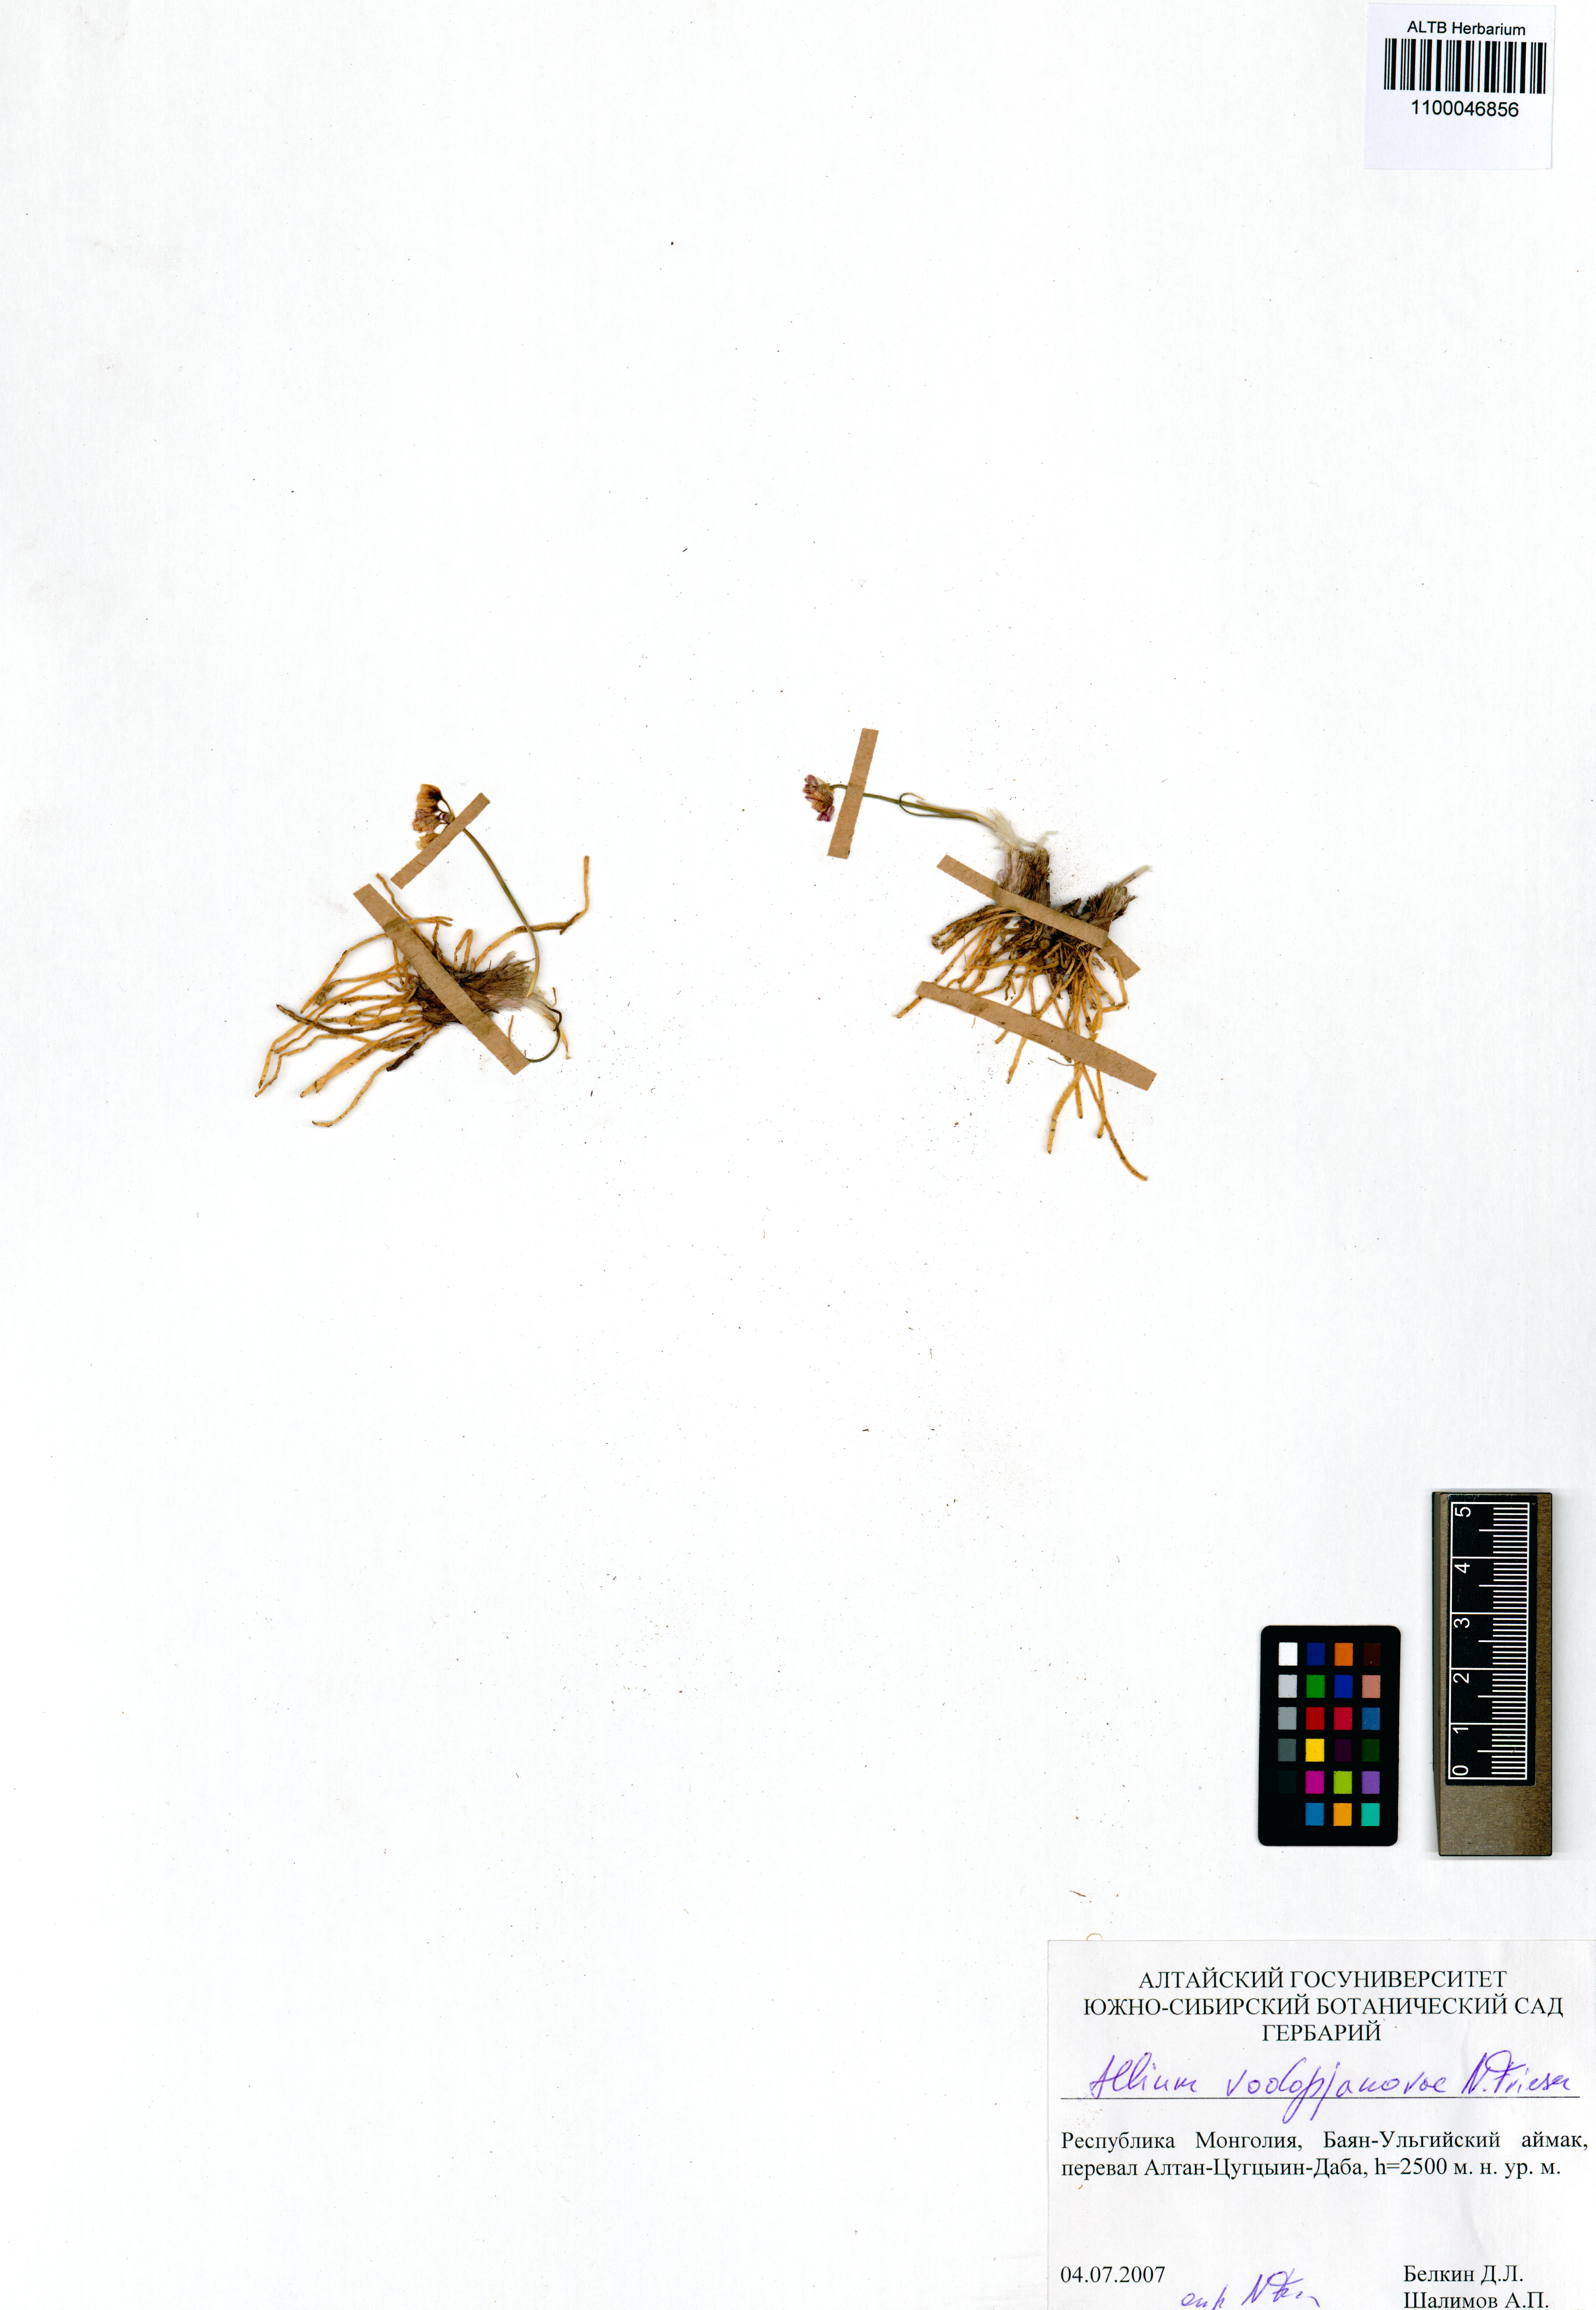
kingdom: Plantae
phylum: Tracheophyta
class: Liliopsida
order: Asparagales
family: Amaryllidaceae
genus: Allium
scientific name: Allium vodopjanovae
